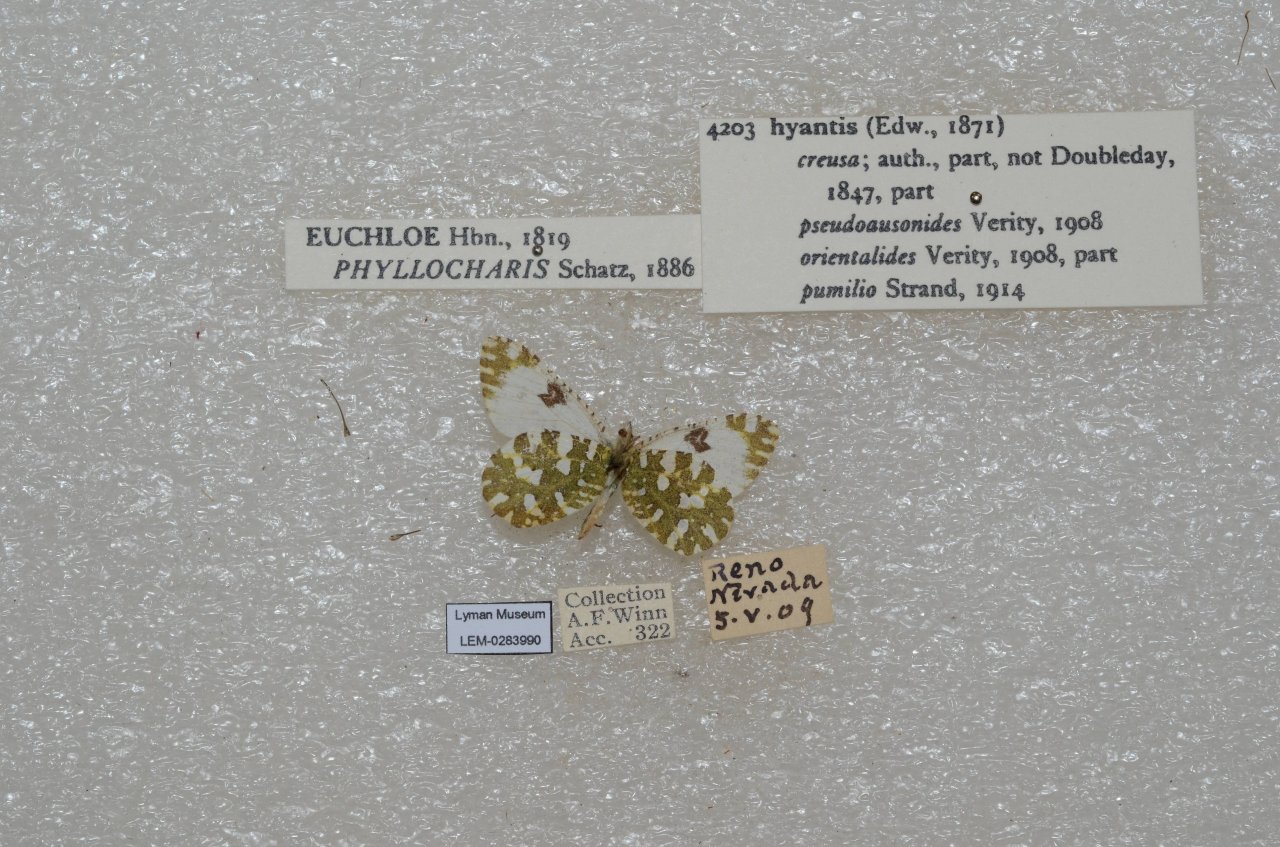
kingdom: Animalia
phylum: Arthropoda
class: Insecta
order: Lepidoptera
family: Pieridae
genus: Euchloe
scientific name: Euchloe hyantis
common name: California Marble
